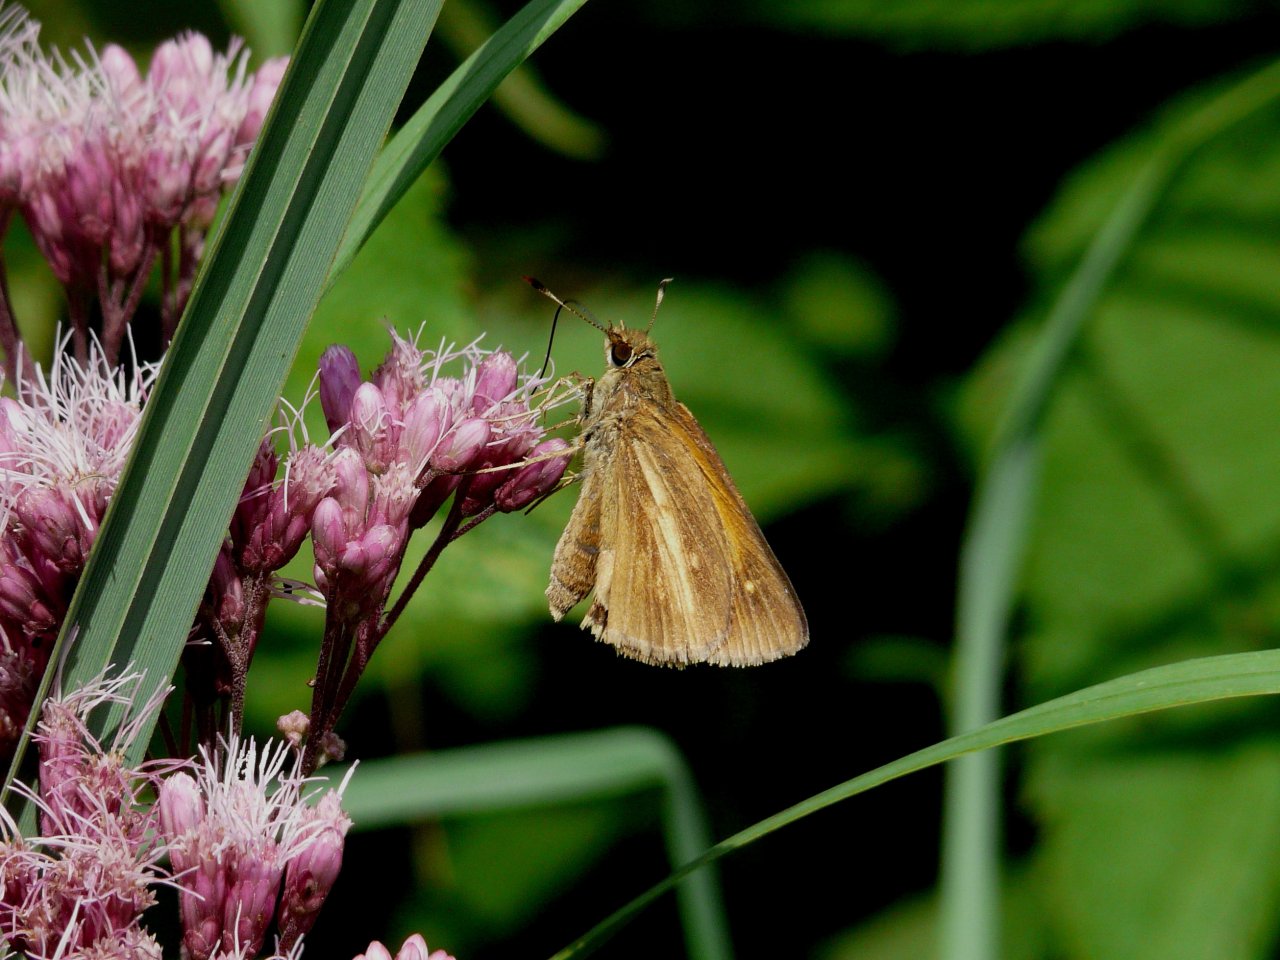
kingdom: Animalia
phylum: Arthropoda
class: Insecta
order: Lepidoptera
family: Hesperiidae
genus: Poanes
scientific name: Poanes viator
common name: Broad-winged Skipper
